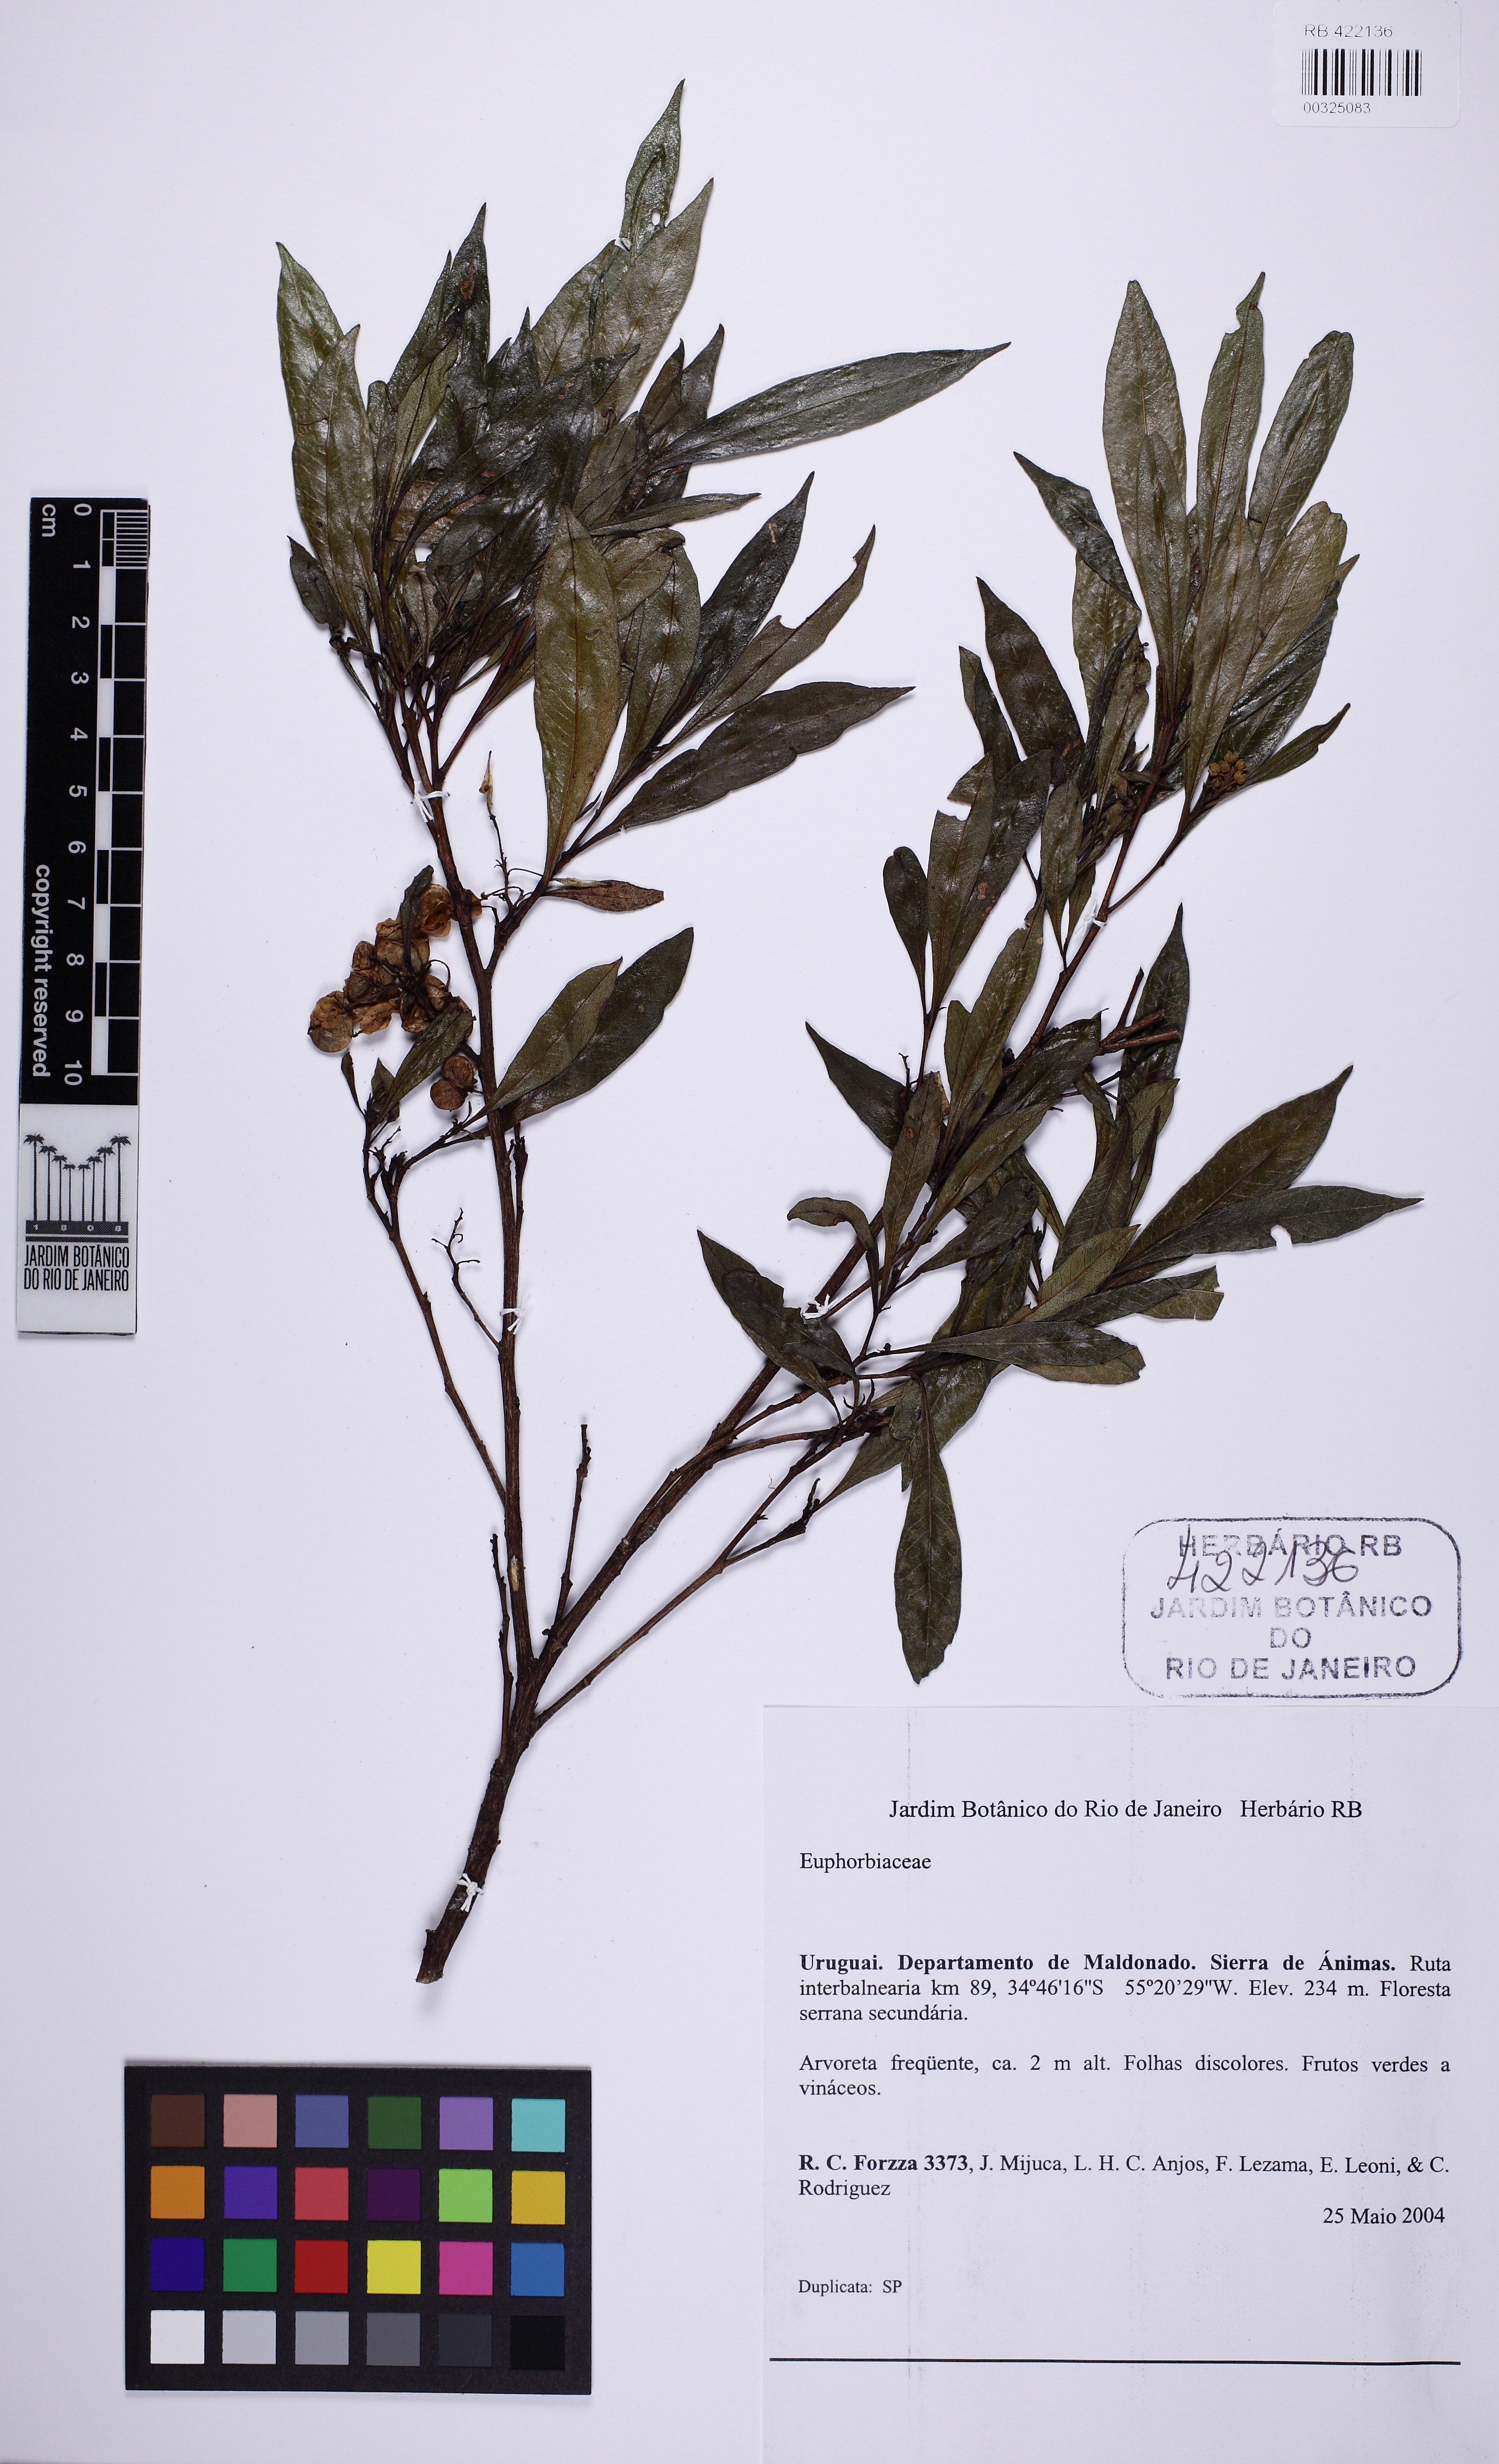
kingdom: Plantae
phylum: Tracheophyta
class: Magnoliopsida
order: Sapindales
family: Sapindaceae
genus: Dodonaea
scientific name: Dodonaea viscosa
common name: Hopbush
